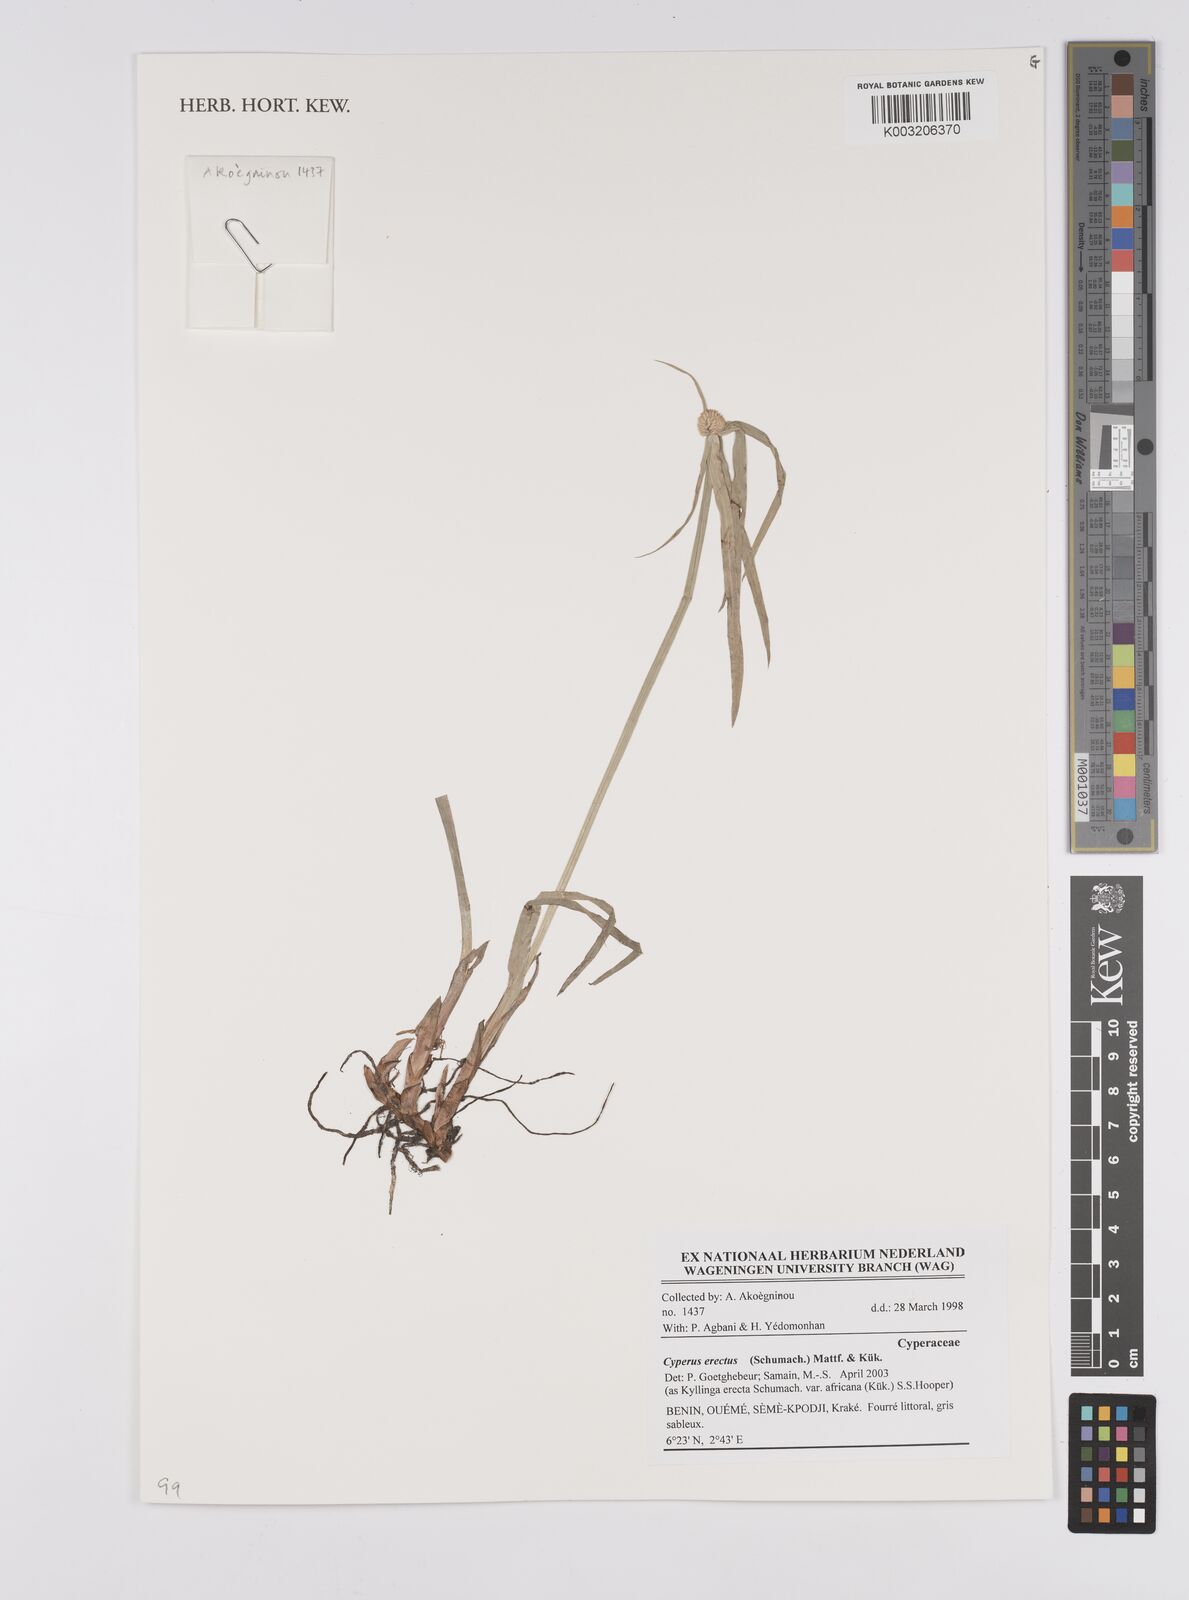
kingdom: Plantae
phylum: Tracheophyta
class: Liliopsida
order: Poales
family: Cyperaceae
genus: Cyperus
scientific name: Cyperus erectus
